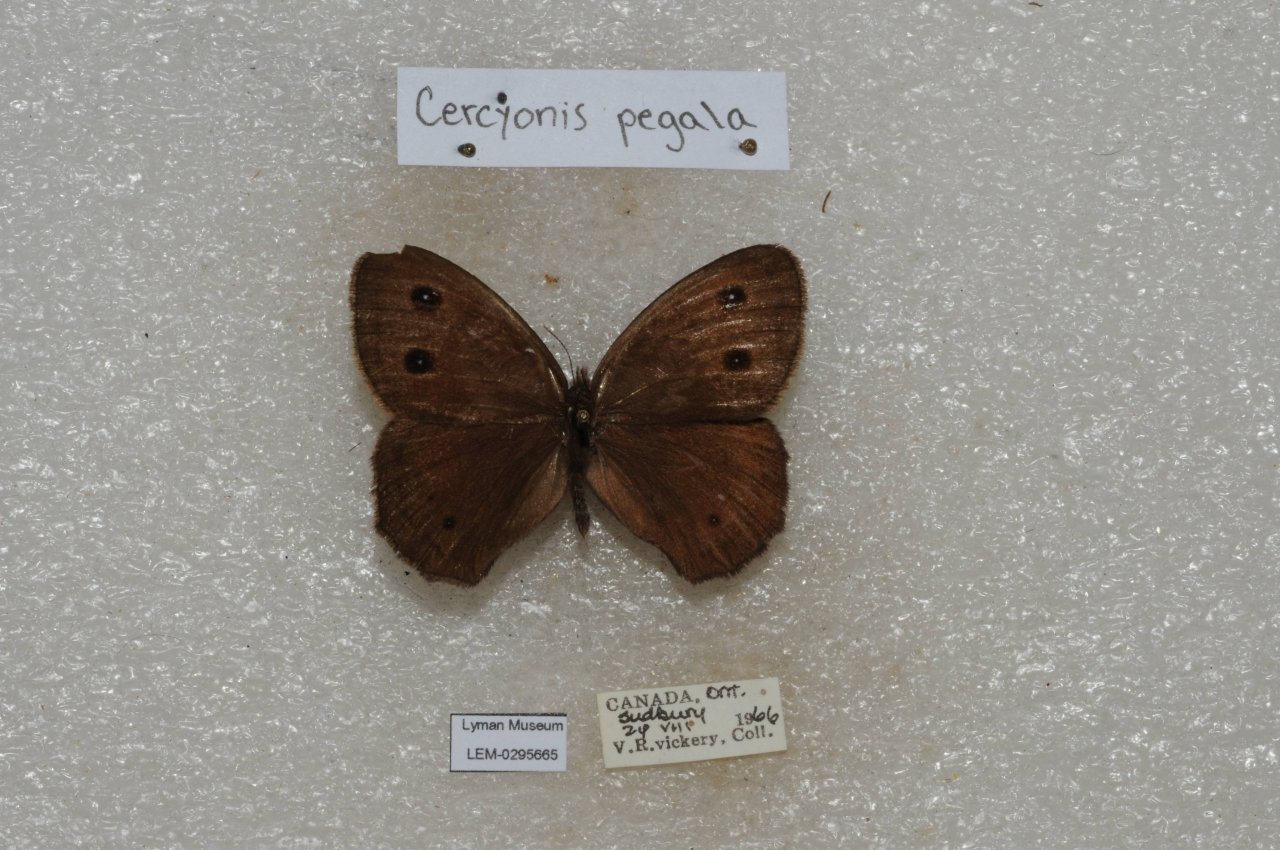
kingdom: Animalia
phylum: Arthropoda
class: Insecta
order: Lepidoptera
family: Nymphalidae
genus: Cercyonis
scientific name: Cercyonis pegala
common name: Common Wood-Nymph
